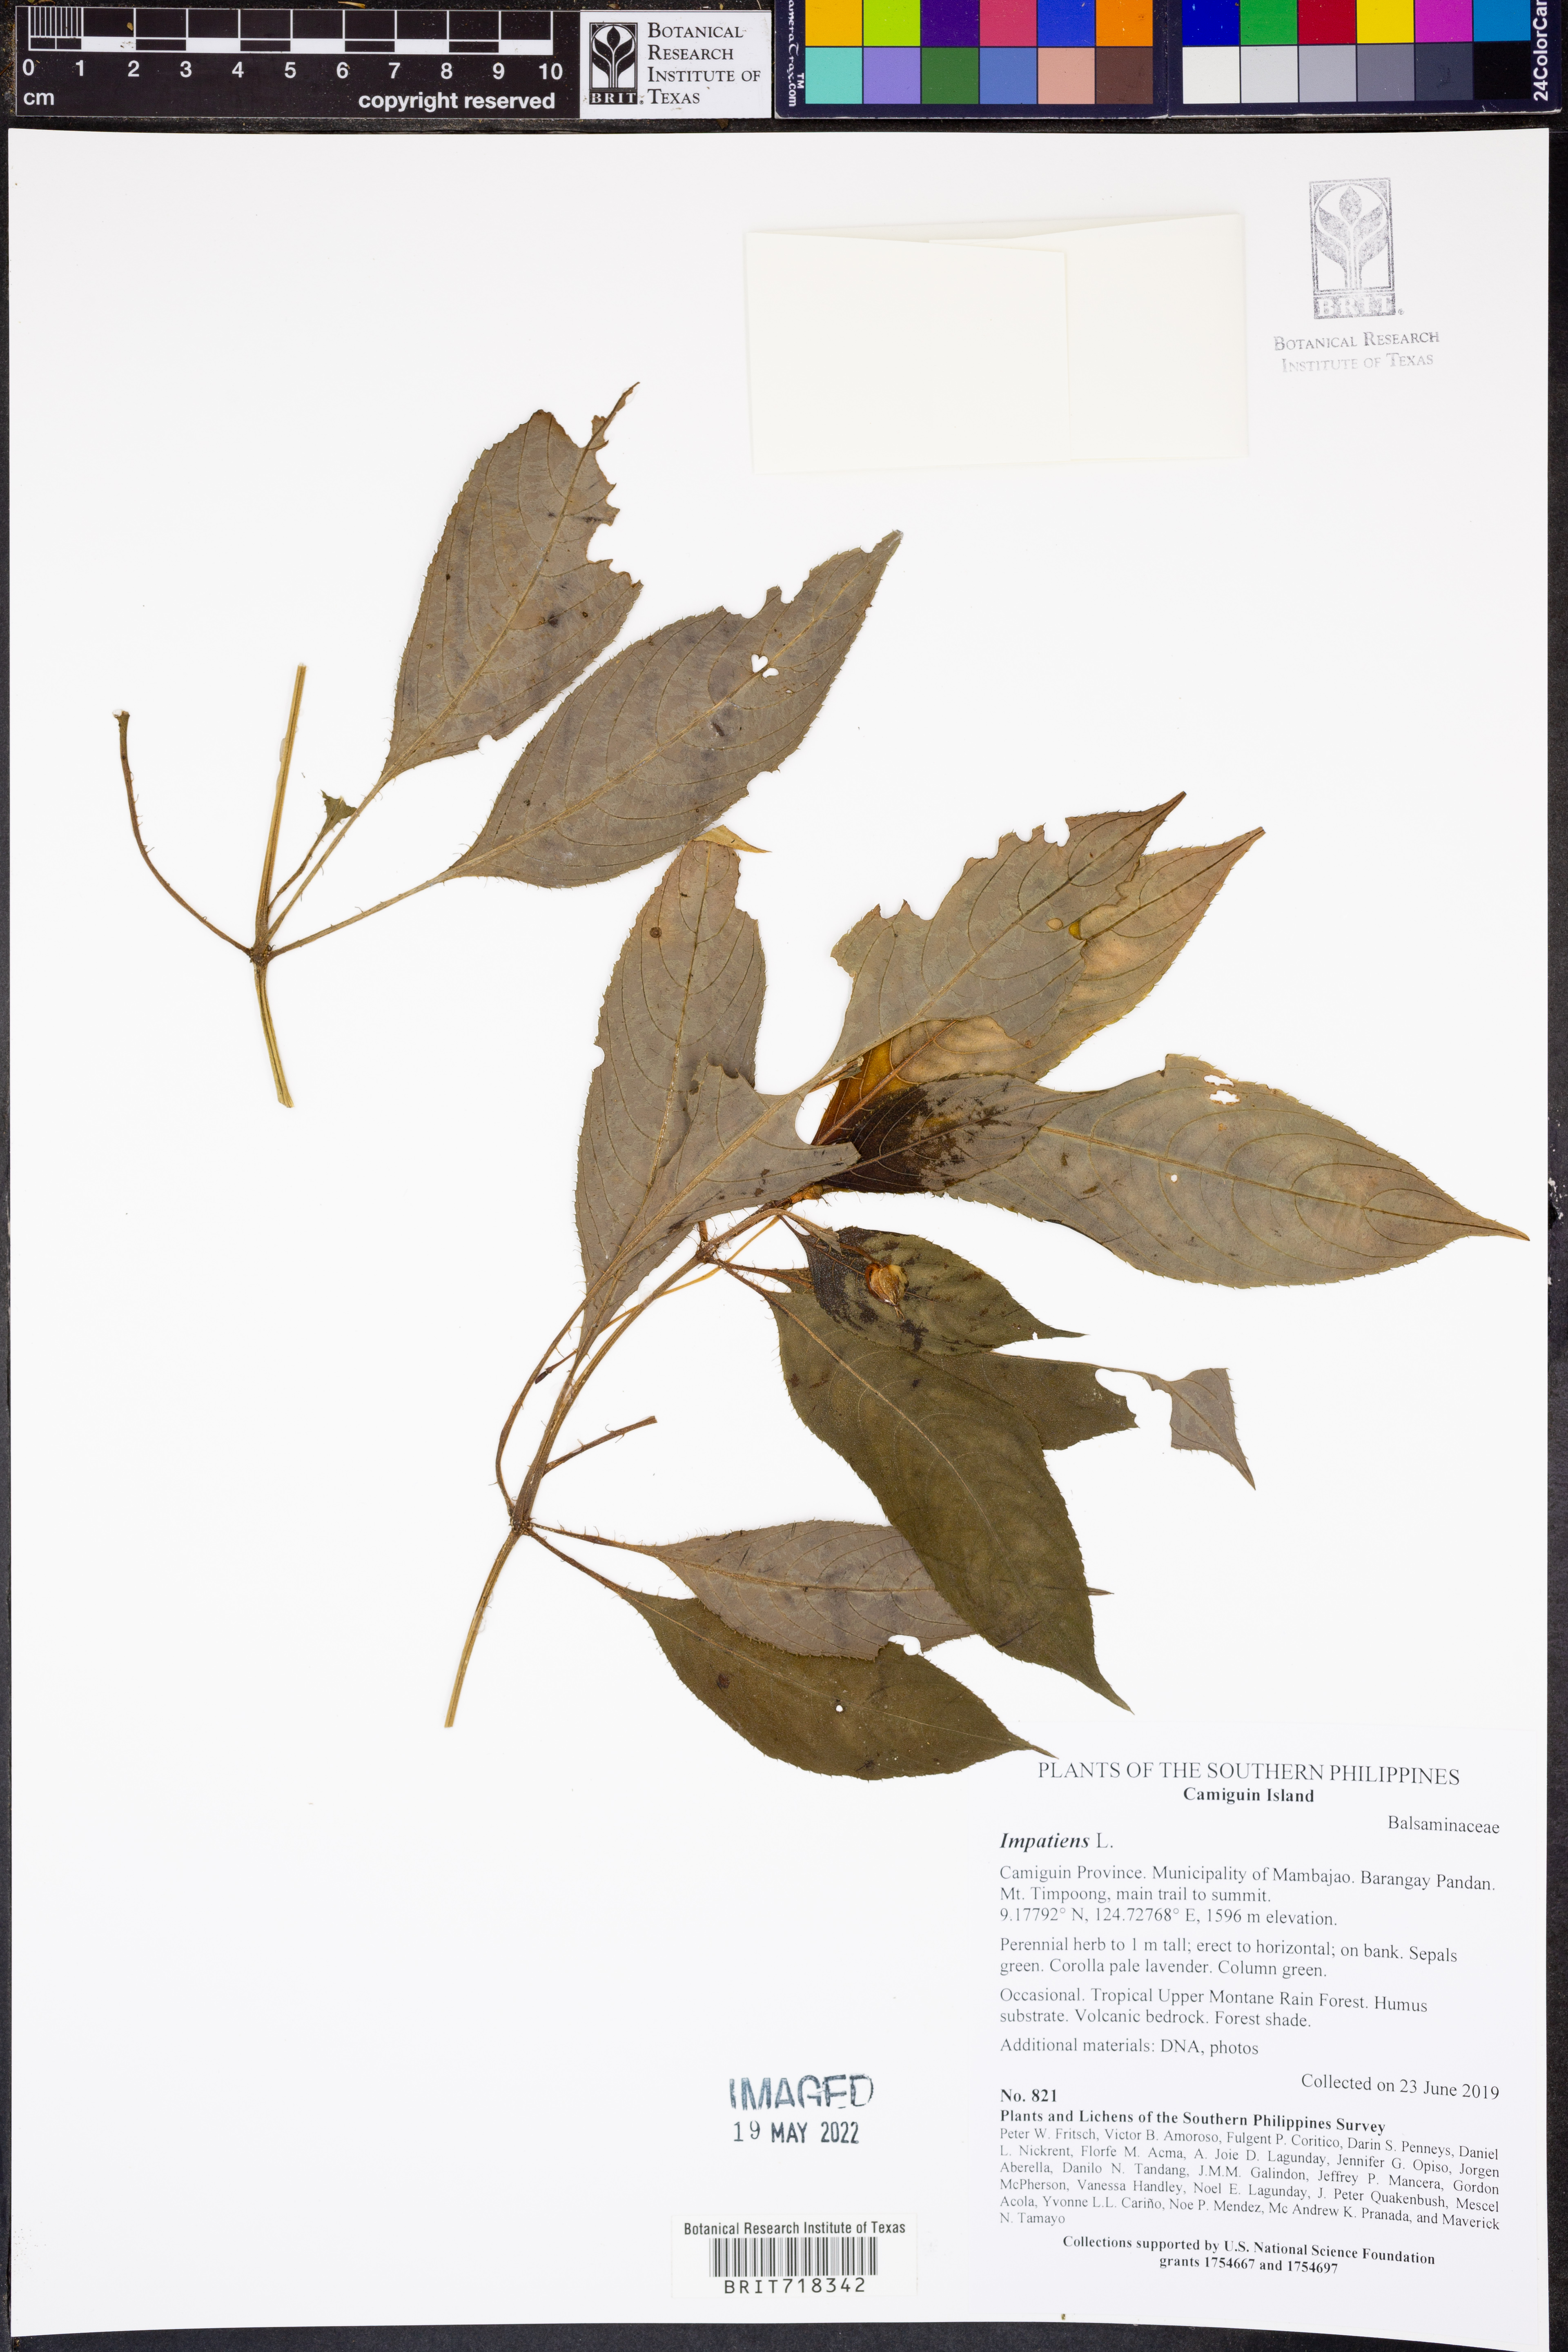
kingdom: Plantae
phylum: Tracheophyta
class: Magnoliopsida
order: Ericales
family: Balsaminaceae
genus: Impatiens
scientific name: Impatiens
